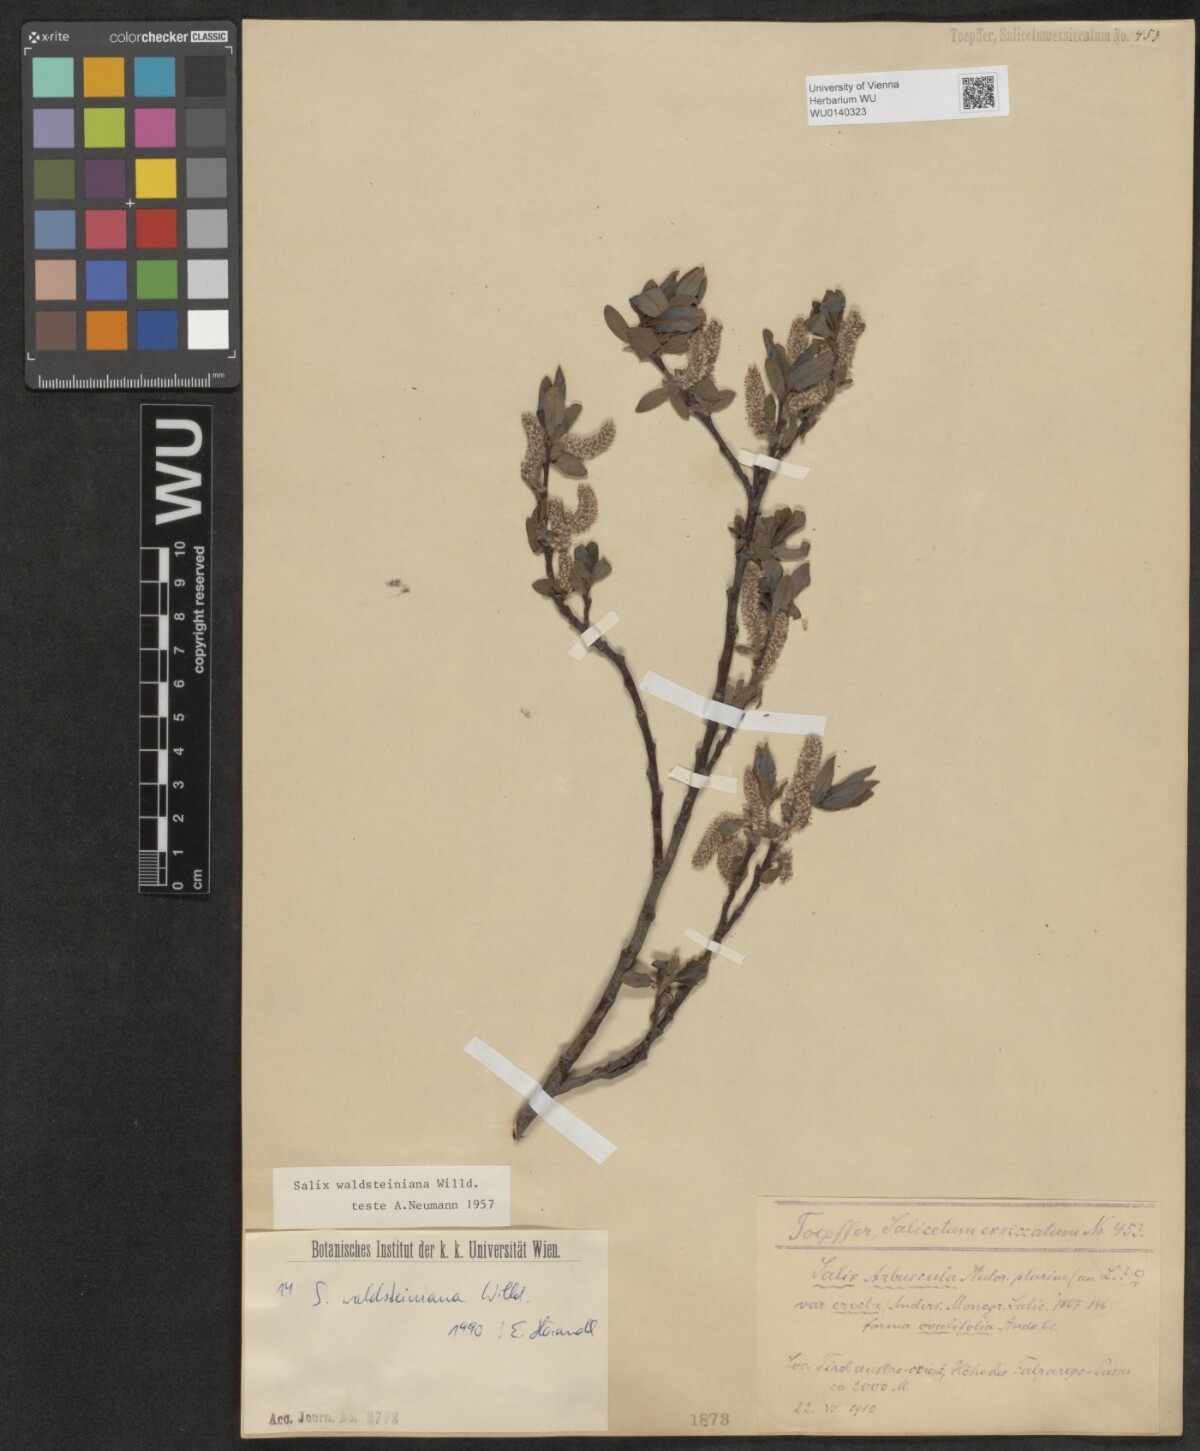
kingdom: Plantae
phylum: Tracheophyta
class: Magnoliopsida
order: Malpighiales
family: Salicaceae
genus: Salix
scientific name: Salix waldsteiniana
